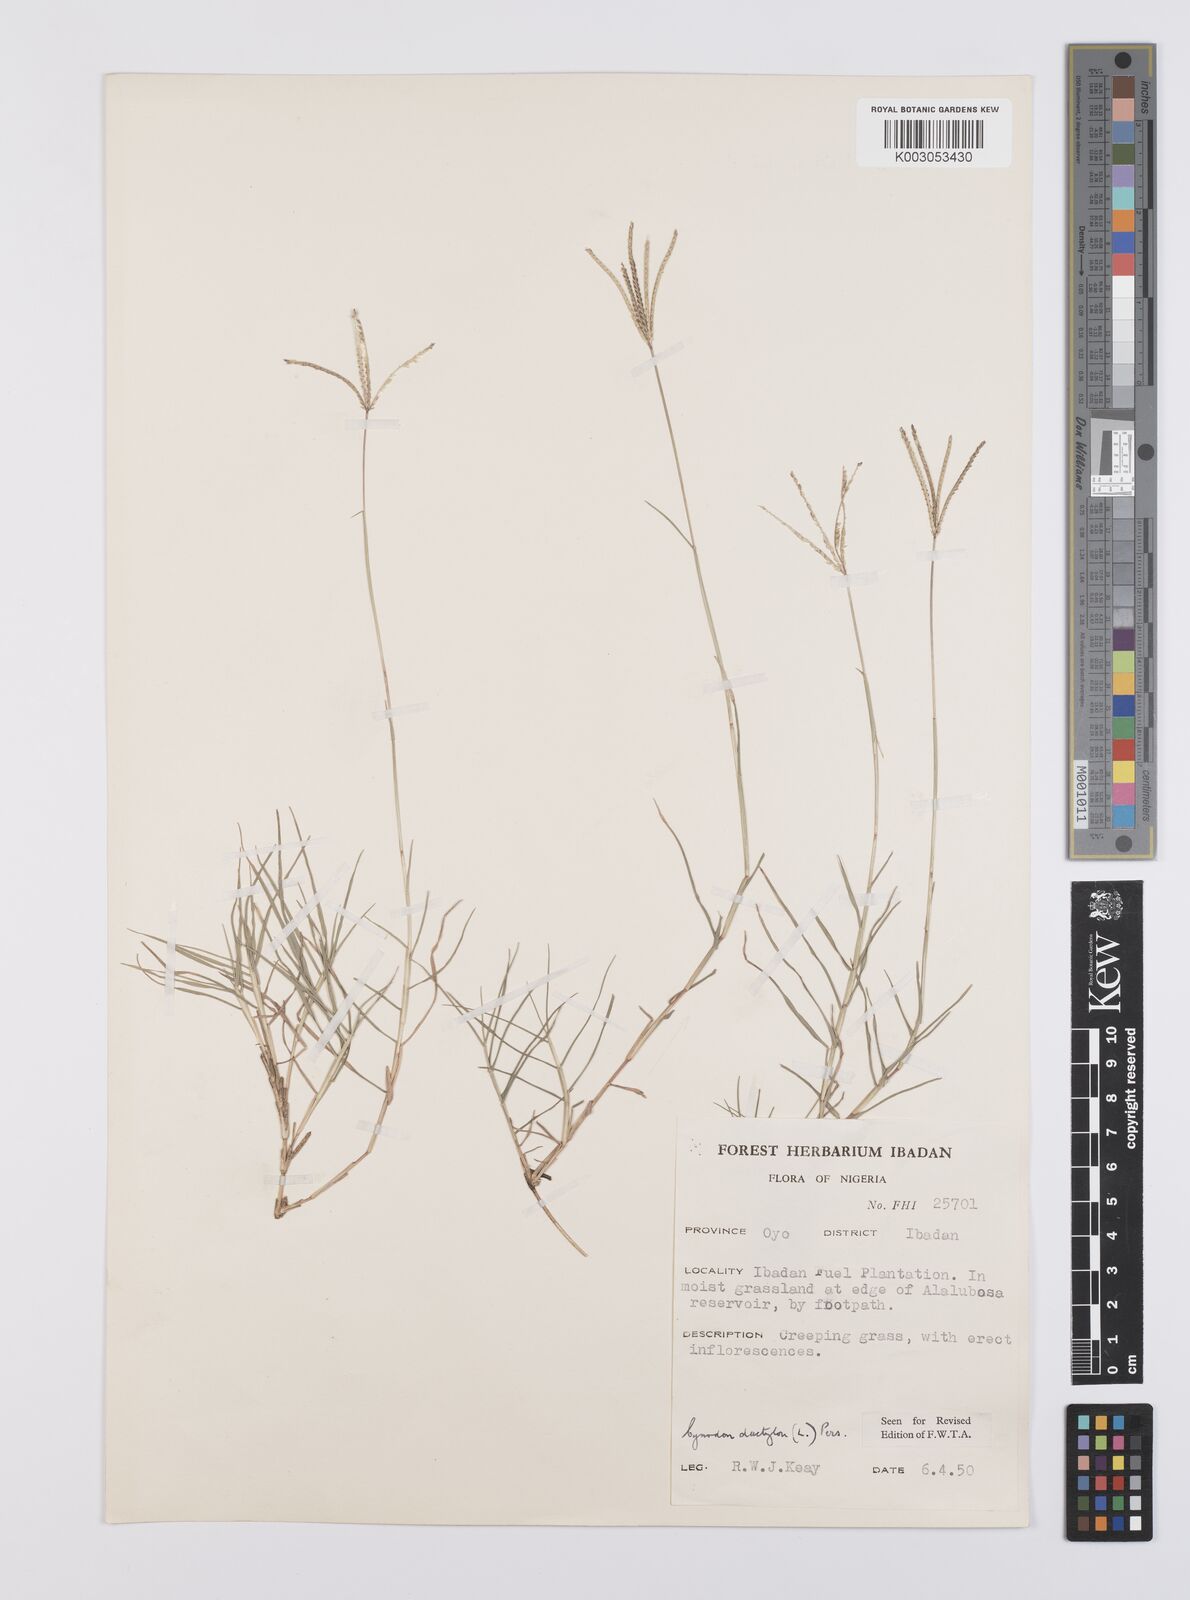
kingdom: Plantae
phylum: Tracheophyta
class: Liliopsida
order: Poales
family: Poaceae
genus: Cynodon
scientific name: Cynodon dactylon
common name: Bermuda grass
